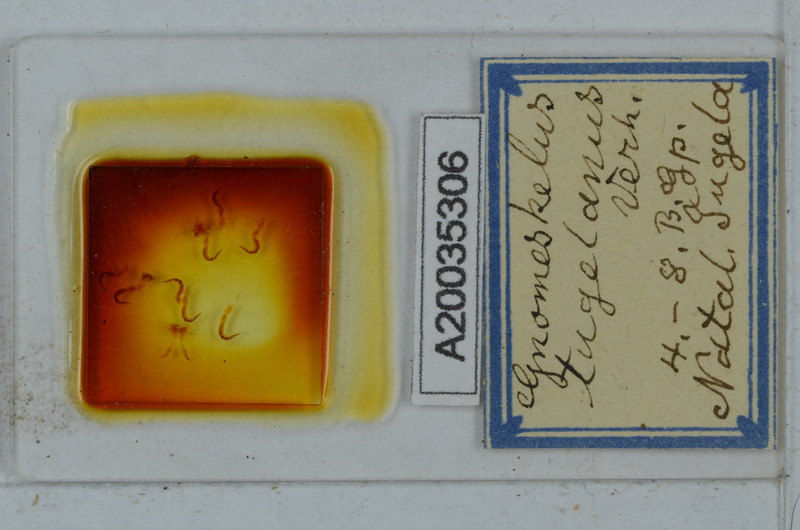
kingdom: Animalia
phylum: Arthropoda
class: Diplopoda
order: Polydesmida
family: Dalodesmidae
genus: Gnomeskelus
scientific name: Gnomeskelus tugelanus
